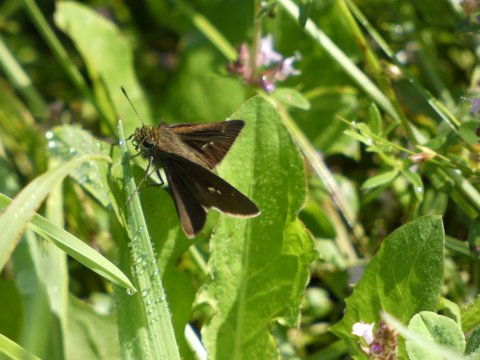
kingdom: Animalia
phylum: Arthropoda
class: Insecta
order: Lepidoptera
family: Hesperiidae
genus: Euphyes
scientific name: Euphyes vestris
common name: Dun Skipper
